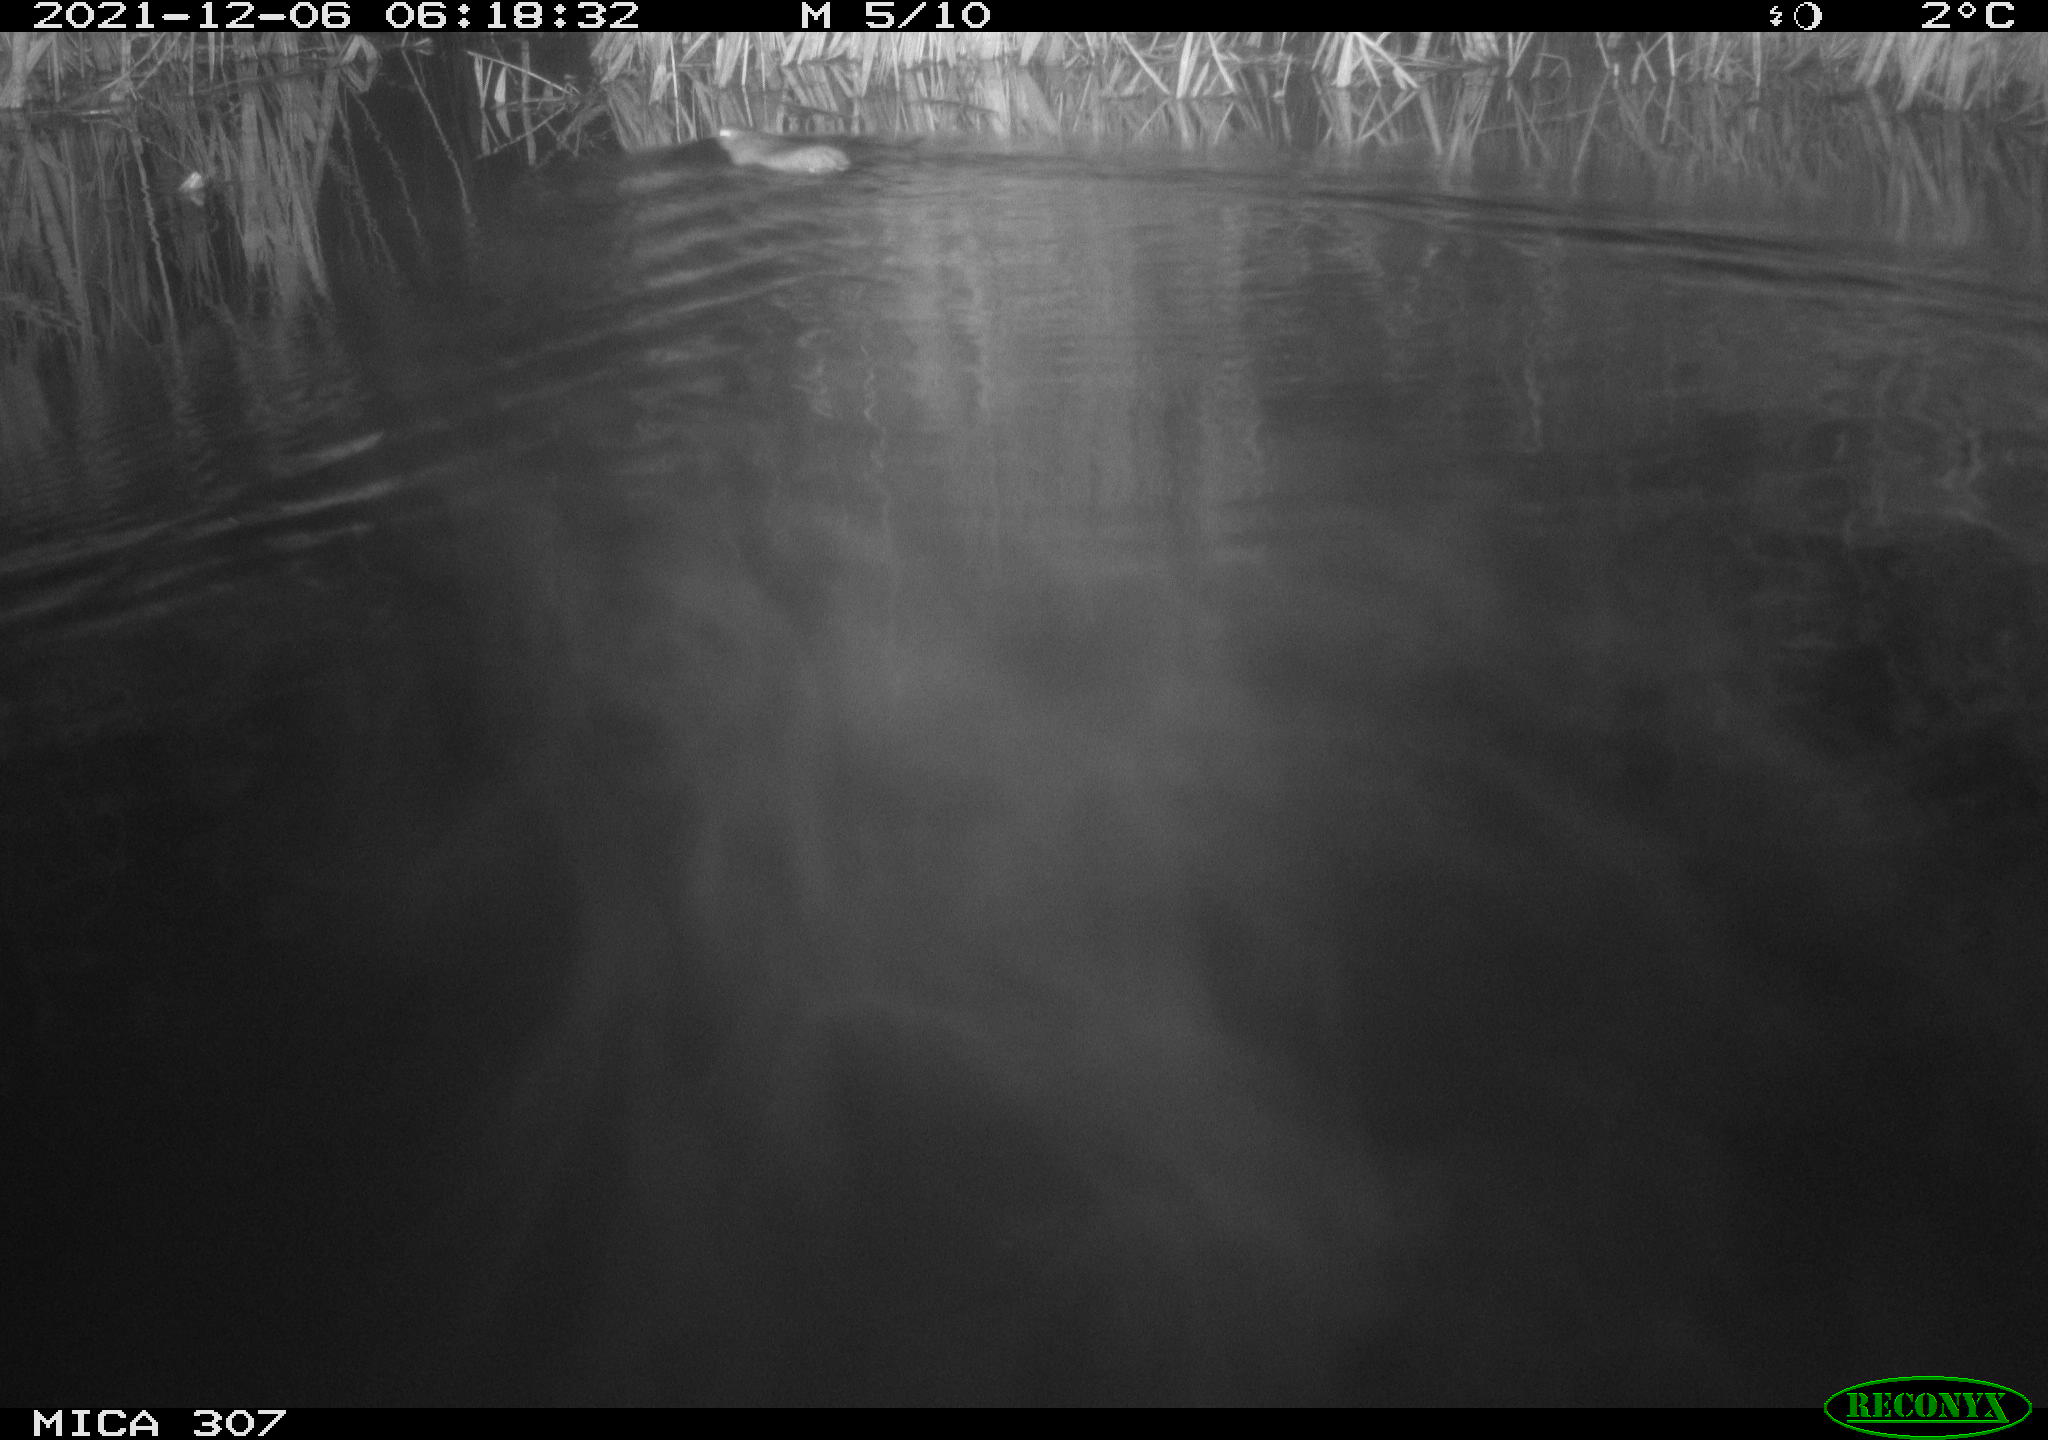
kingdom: Animalia
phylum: Chordata
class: Mammalia
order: Rodentia
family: Muridae
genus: Rattus
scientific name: Rattus norvegicus
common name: Brown rat
